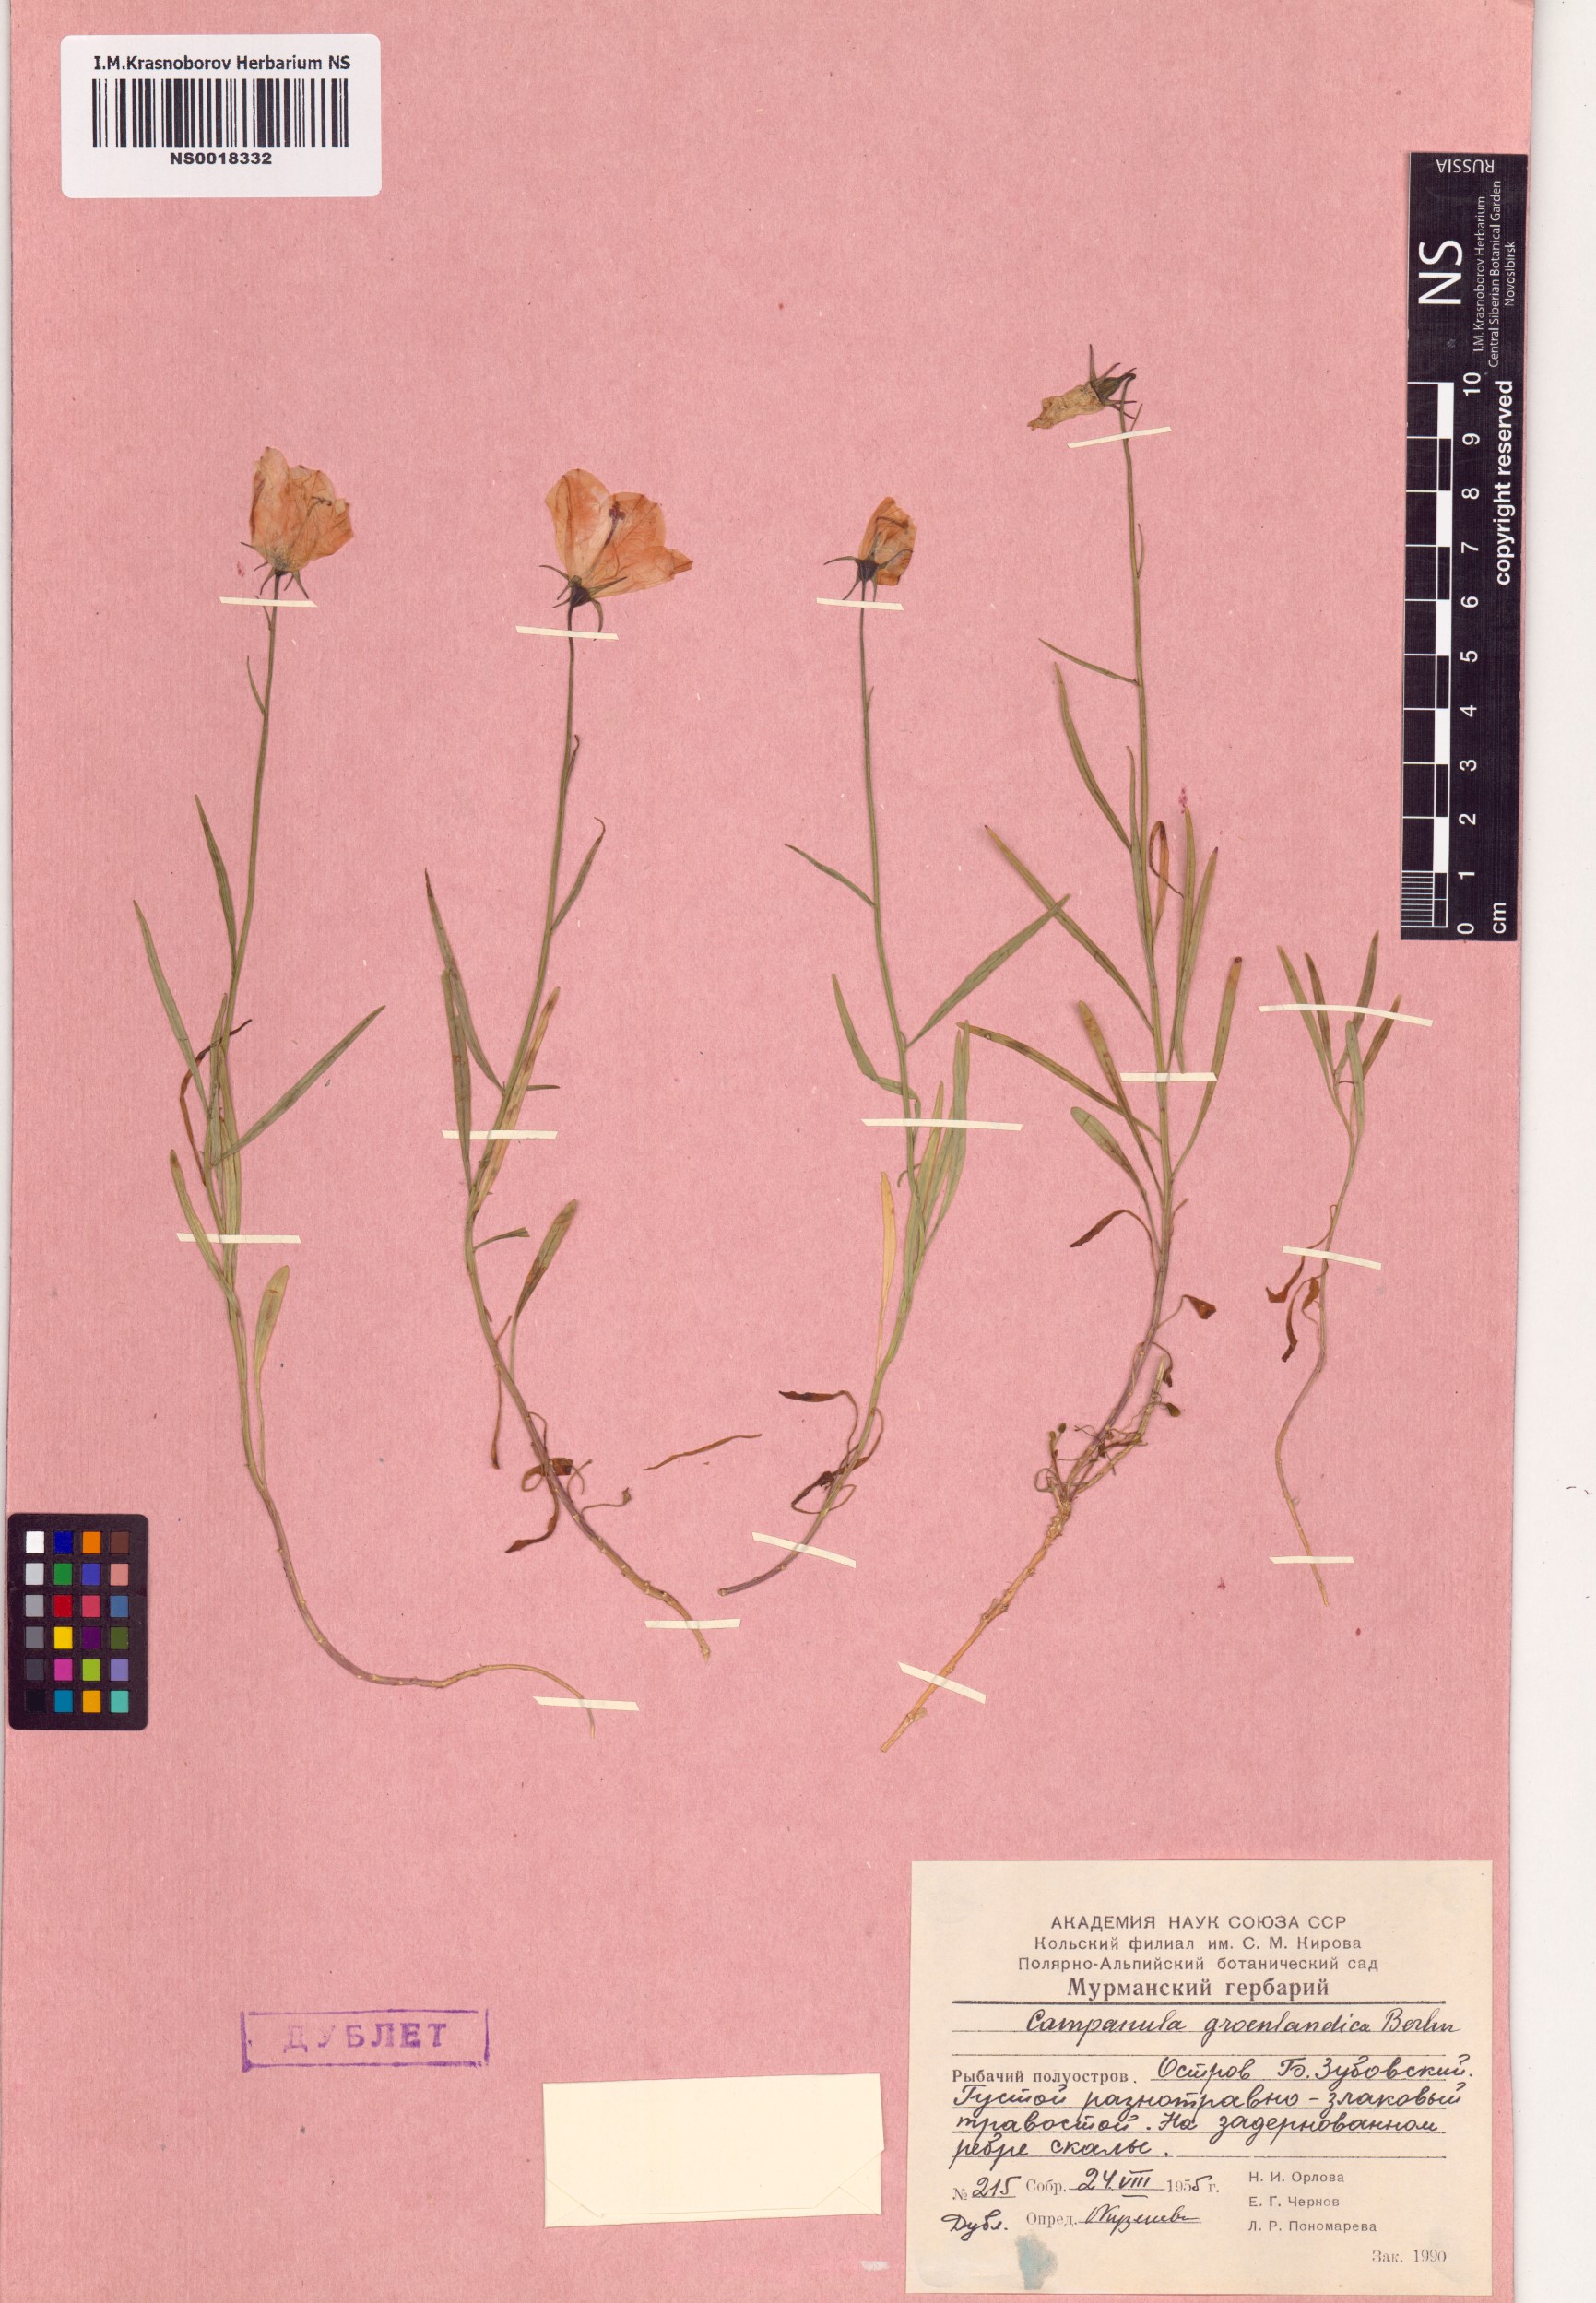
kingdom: Plantae
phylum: Tracheophyta
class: Magnoliopsida
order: Asterales
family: Campanulaceae
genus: Campanula
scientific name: Campanula giesekiana
